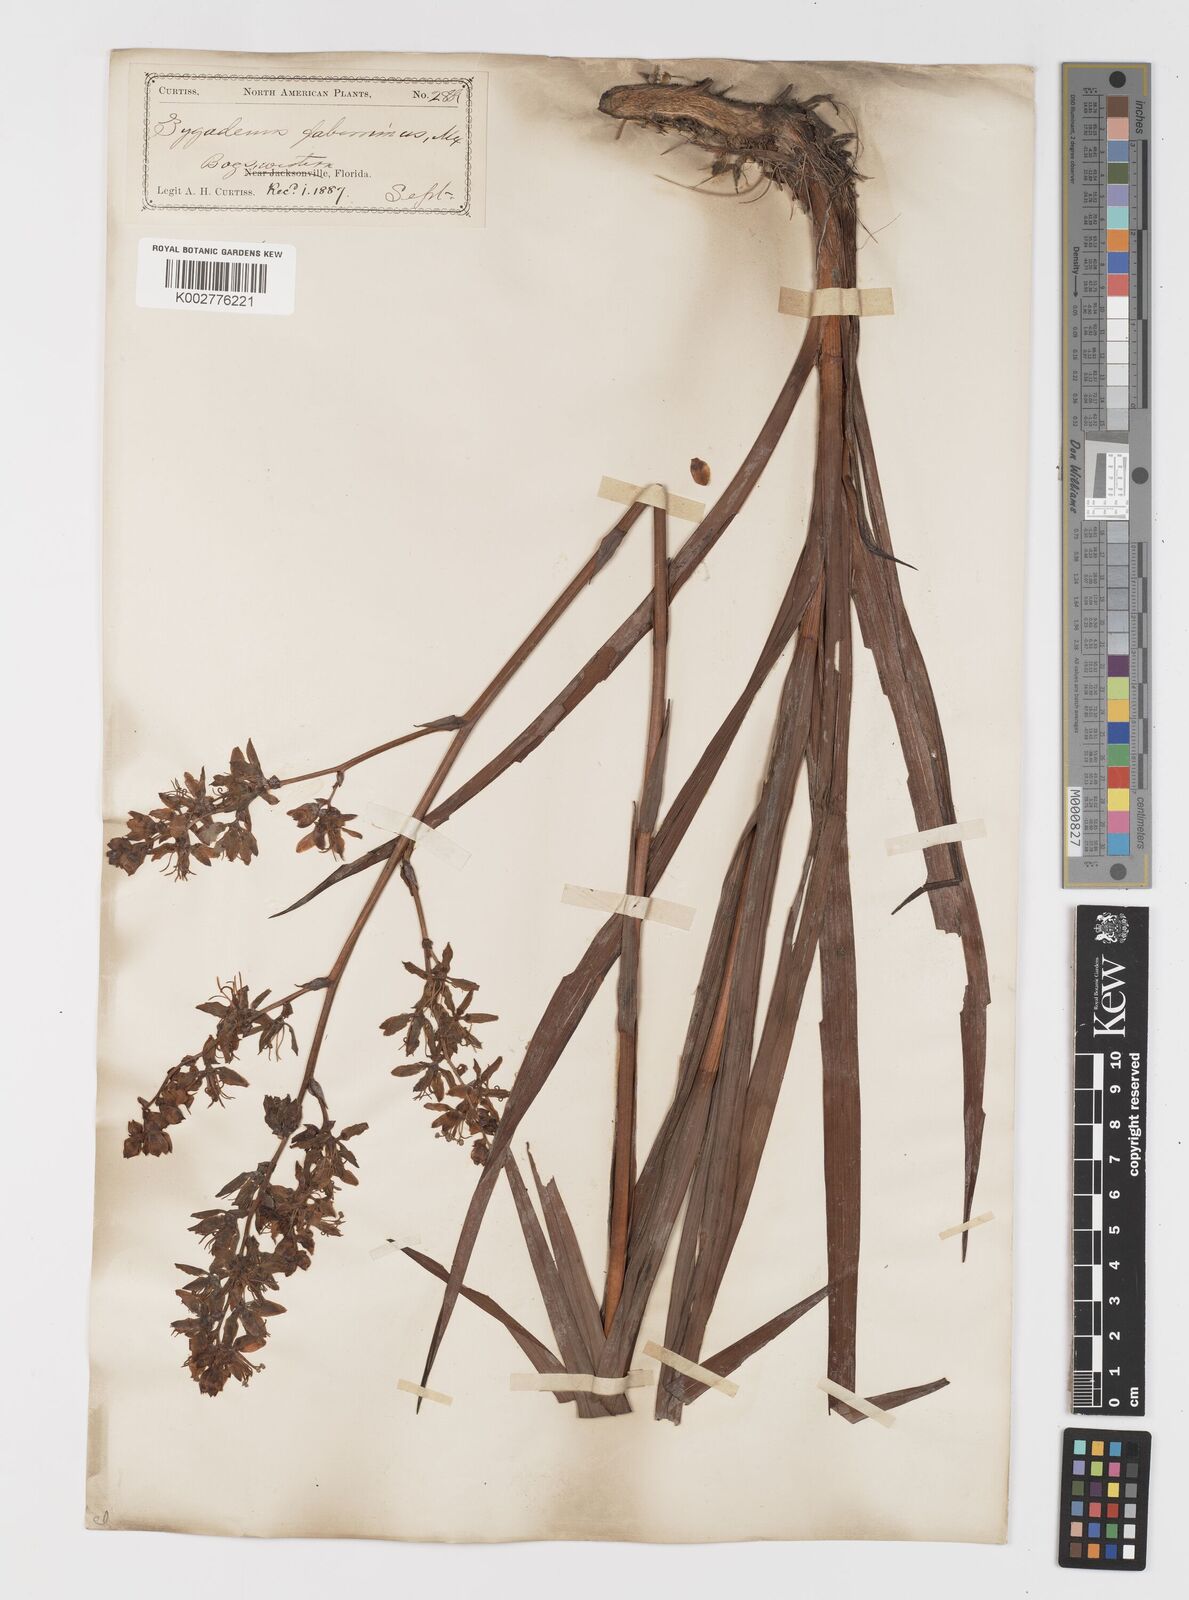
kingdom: Plantae
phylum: Tracheophyta
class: Liliopsida
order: Liliales
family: Melanthiaceae
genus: Zigadenus
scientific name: Zigadenus glaberrimus
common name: Sandbog death camas
